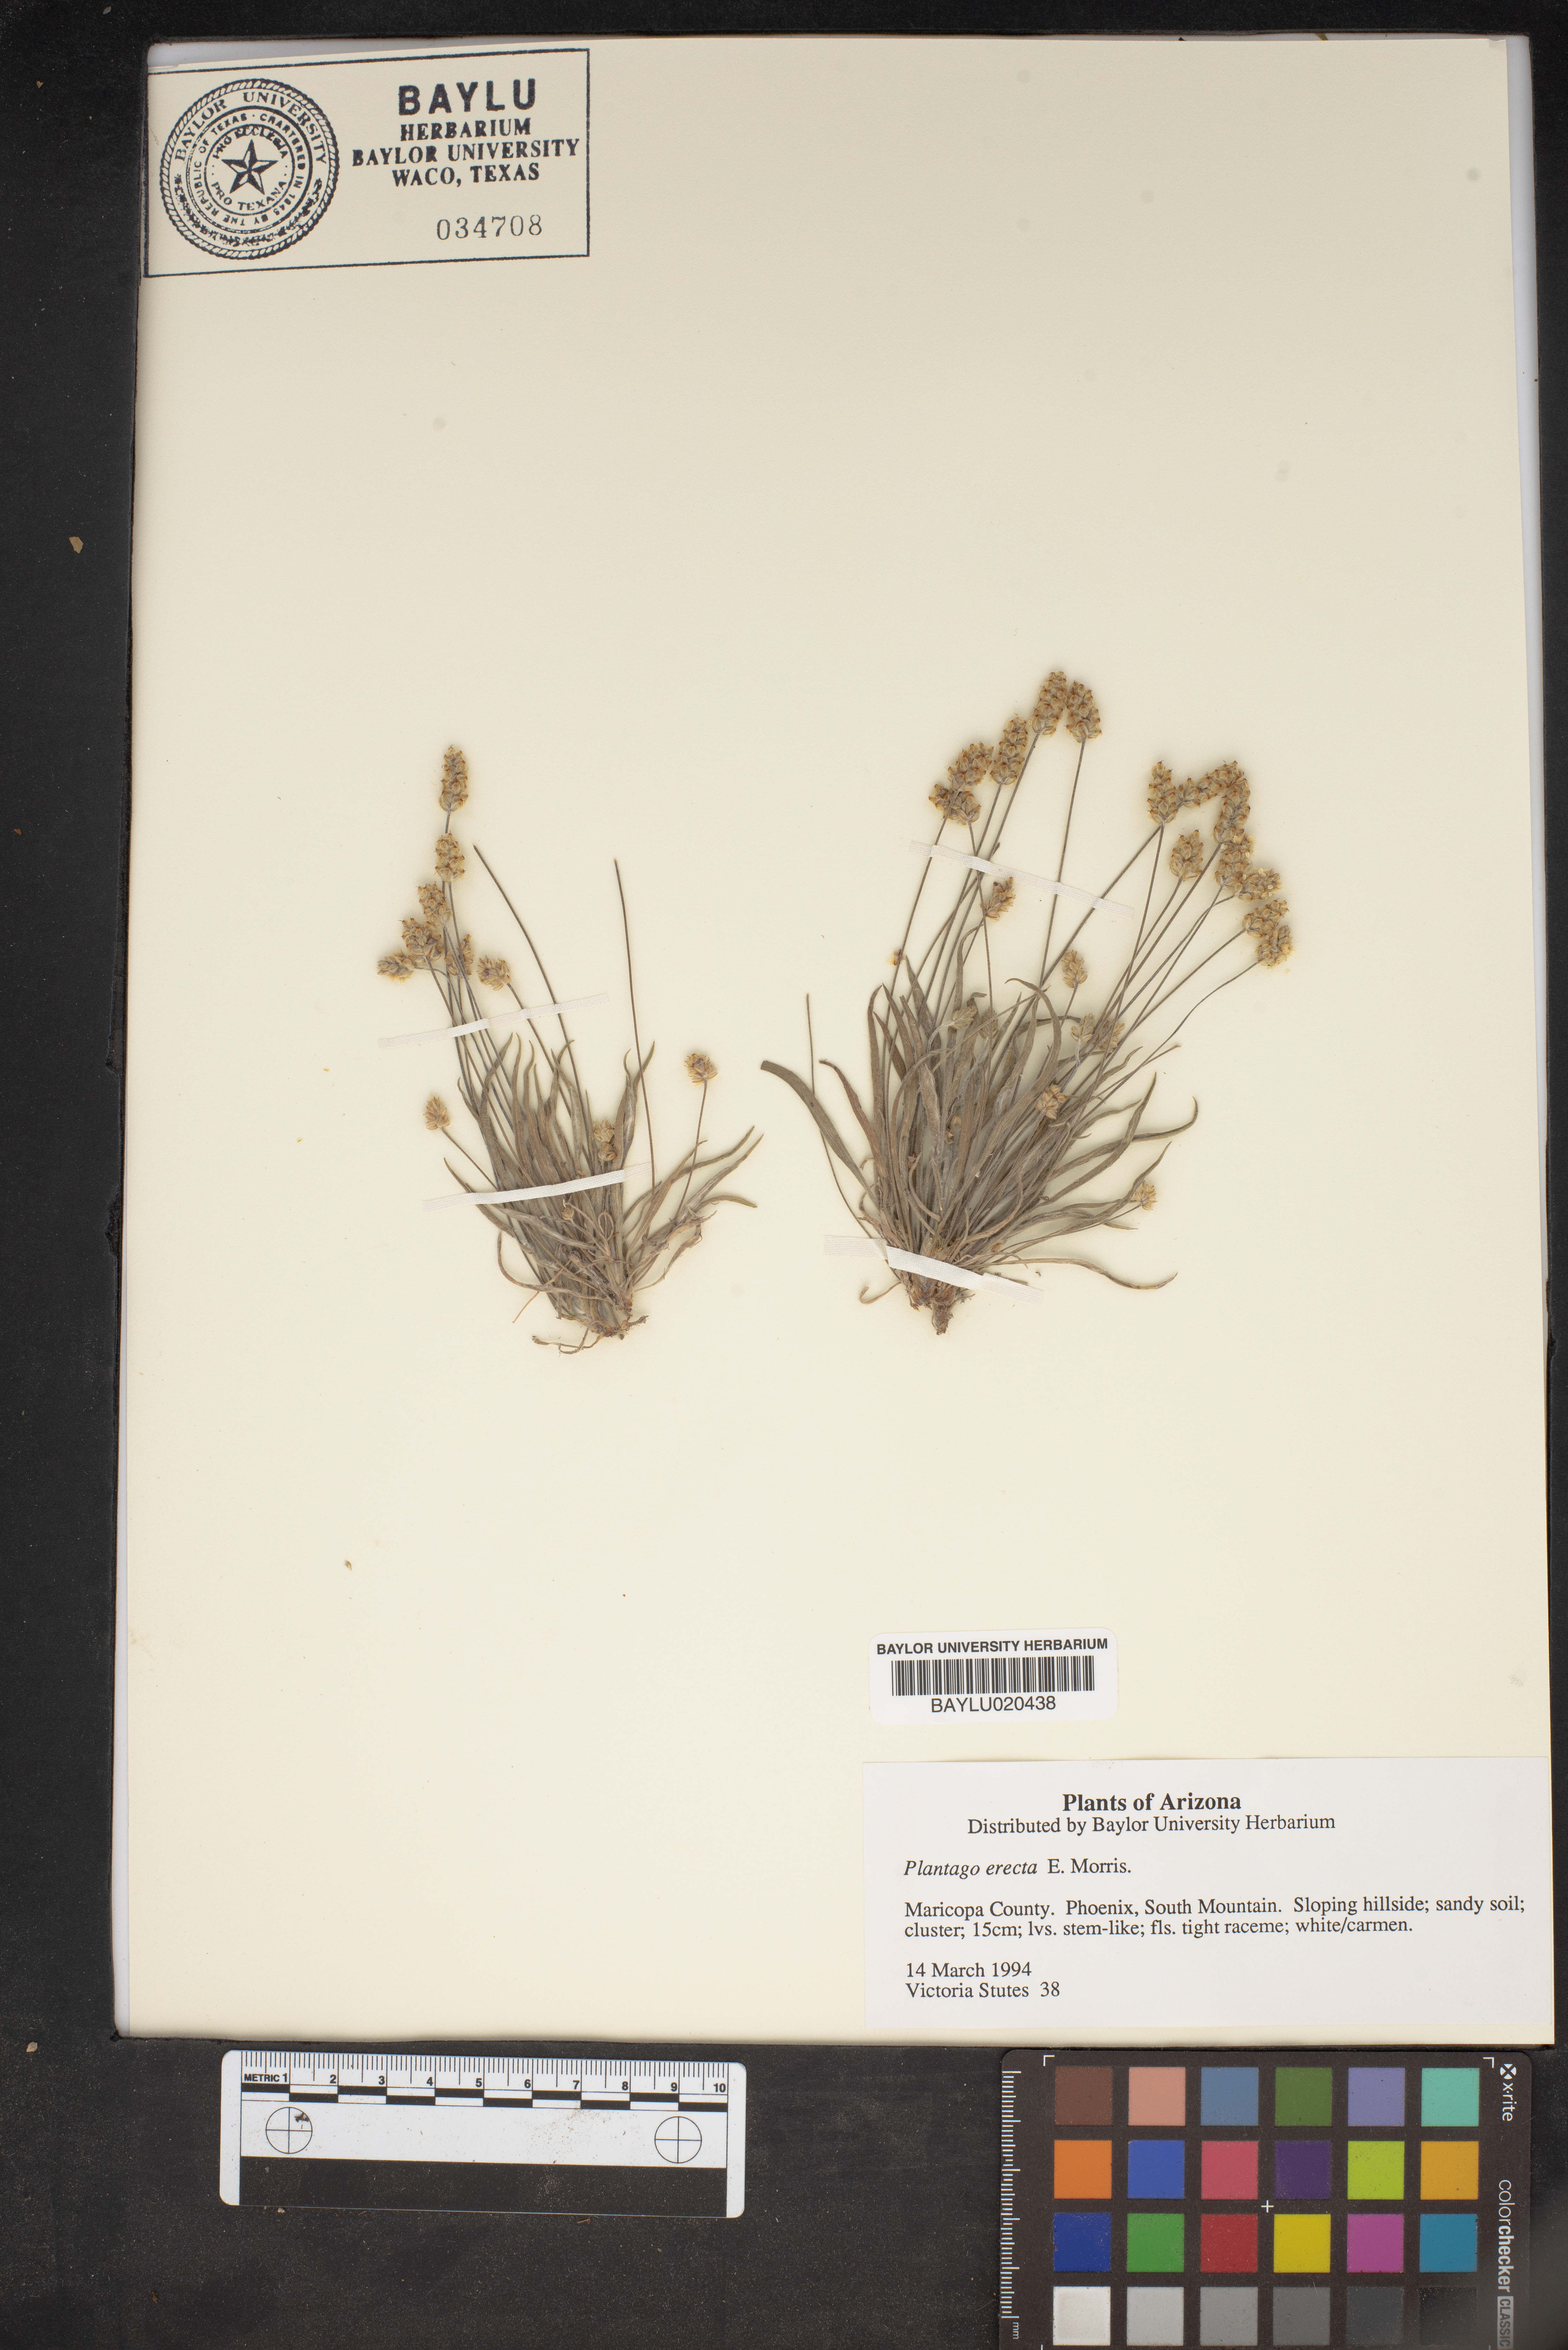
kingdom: Plantae
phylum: Tracheophyta
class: Magnoliopsida
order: Lamiales
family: Plantaginaceae
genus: Plantago
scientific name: Plantago erecta
